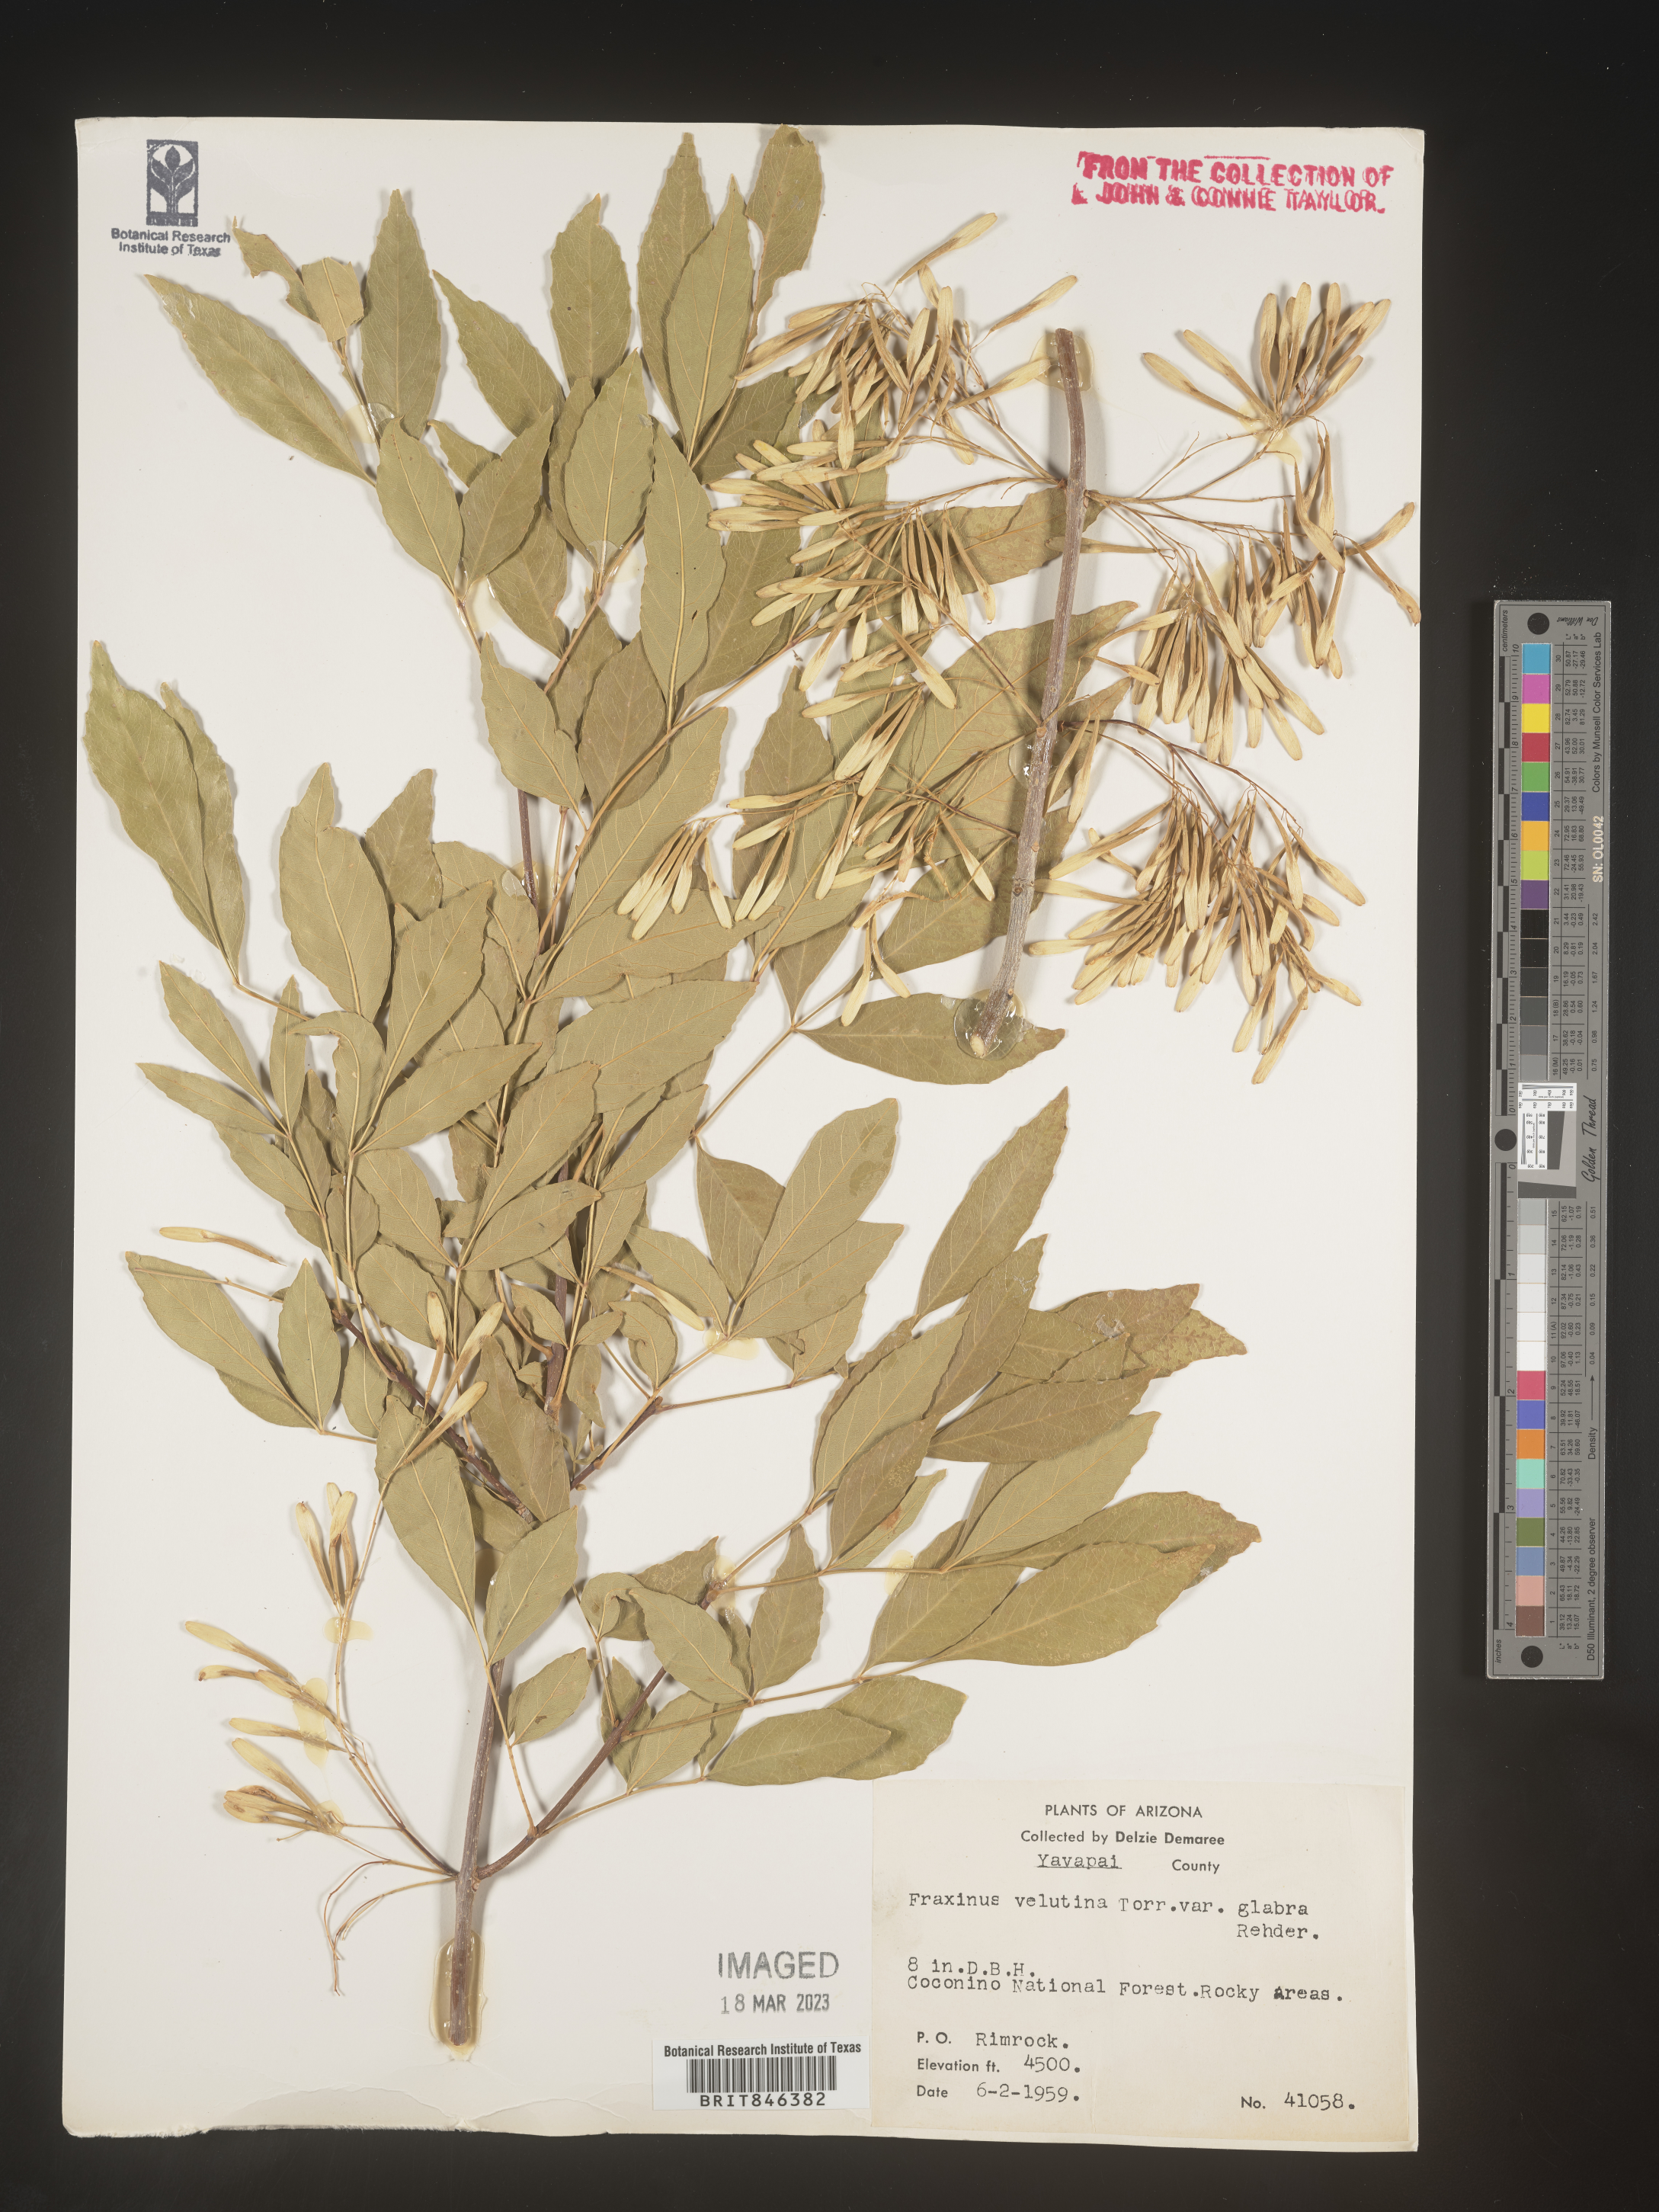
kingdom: Plantae
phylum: Tracheophyta
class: Magnoliopsida
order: Lamiales
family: Oleaceae
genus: Fraxinus
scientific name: Fraxinus velutina
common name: Arizon ash
